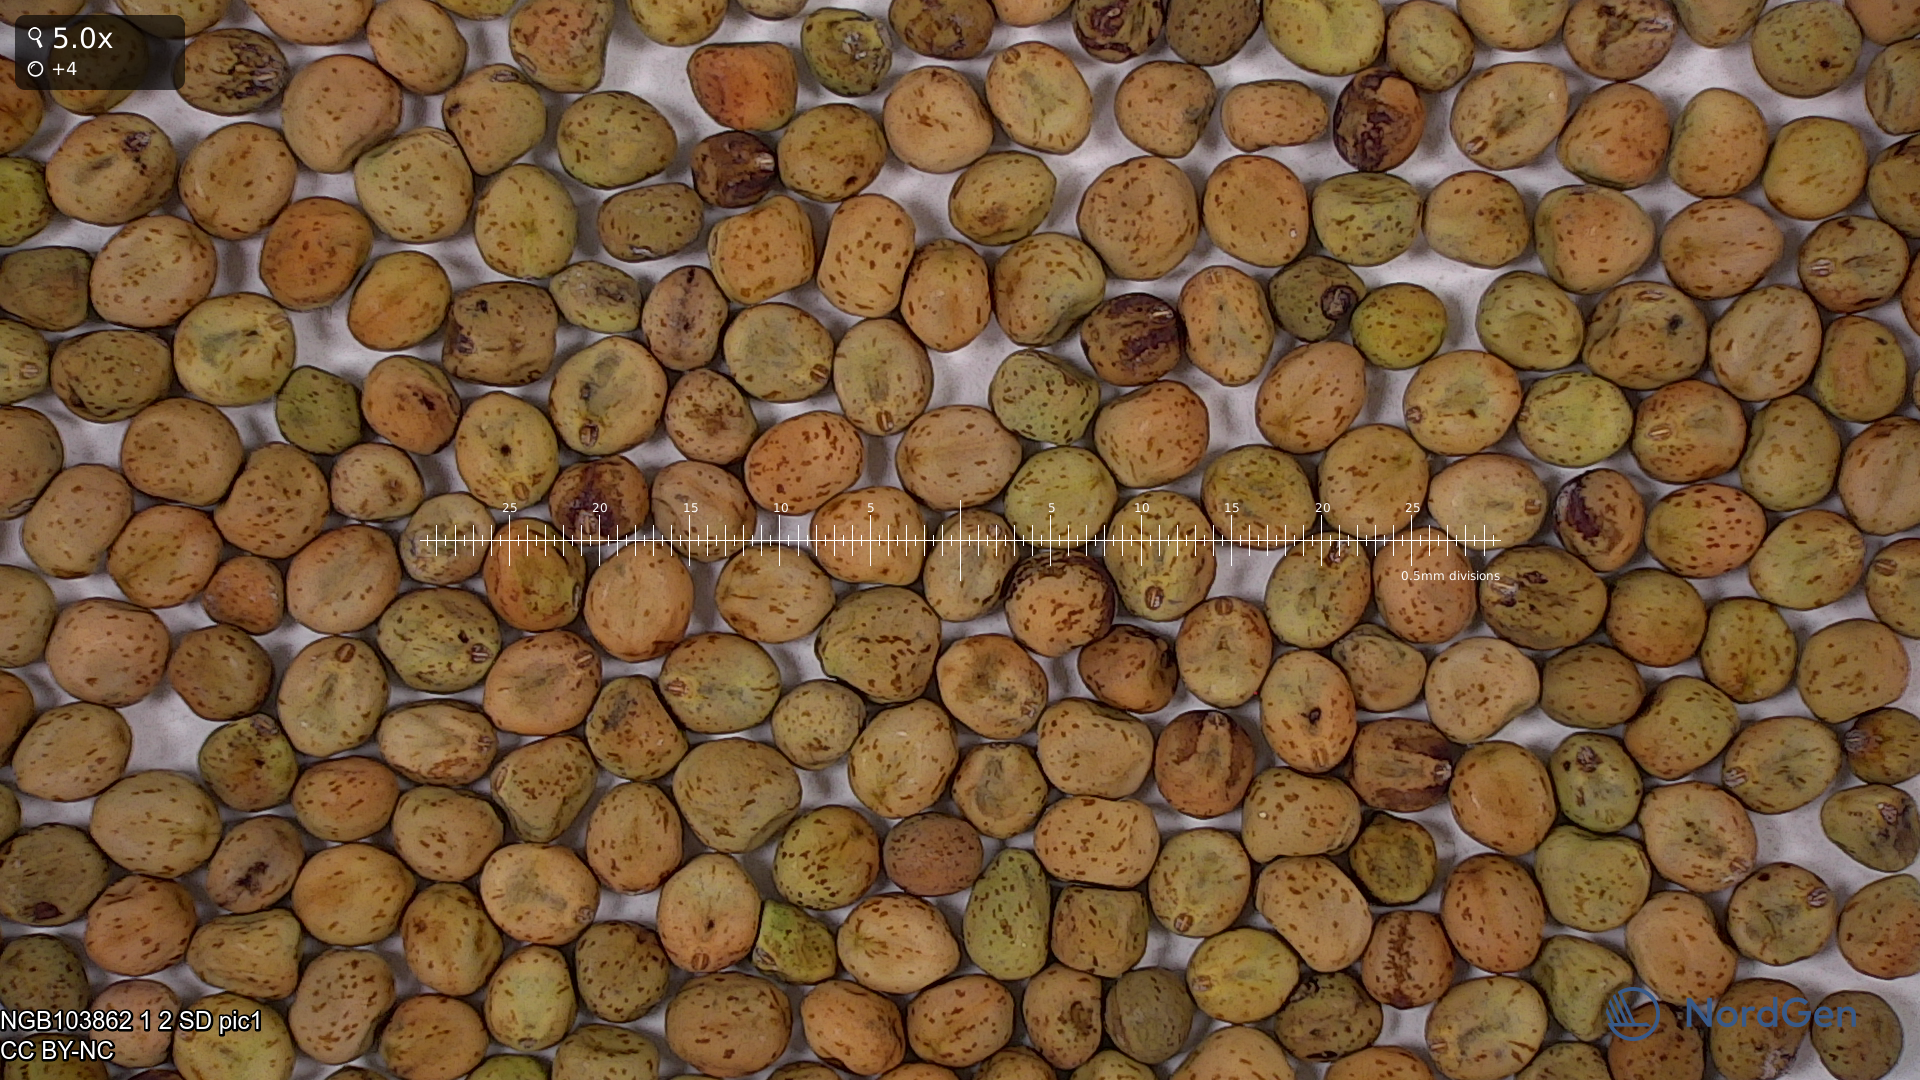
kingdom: Plantae
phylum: Tracheophyta
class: Magnoliopsida
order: Fabales
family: Fabaceae
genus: Lathyrus
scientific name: Lathyrus oleraceus
